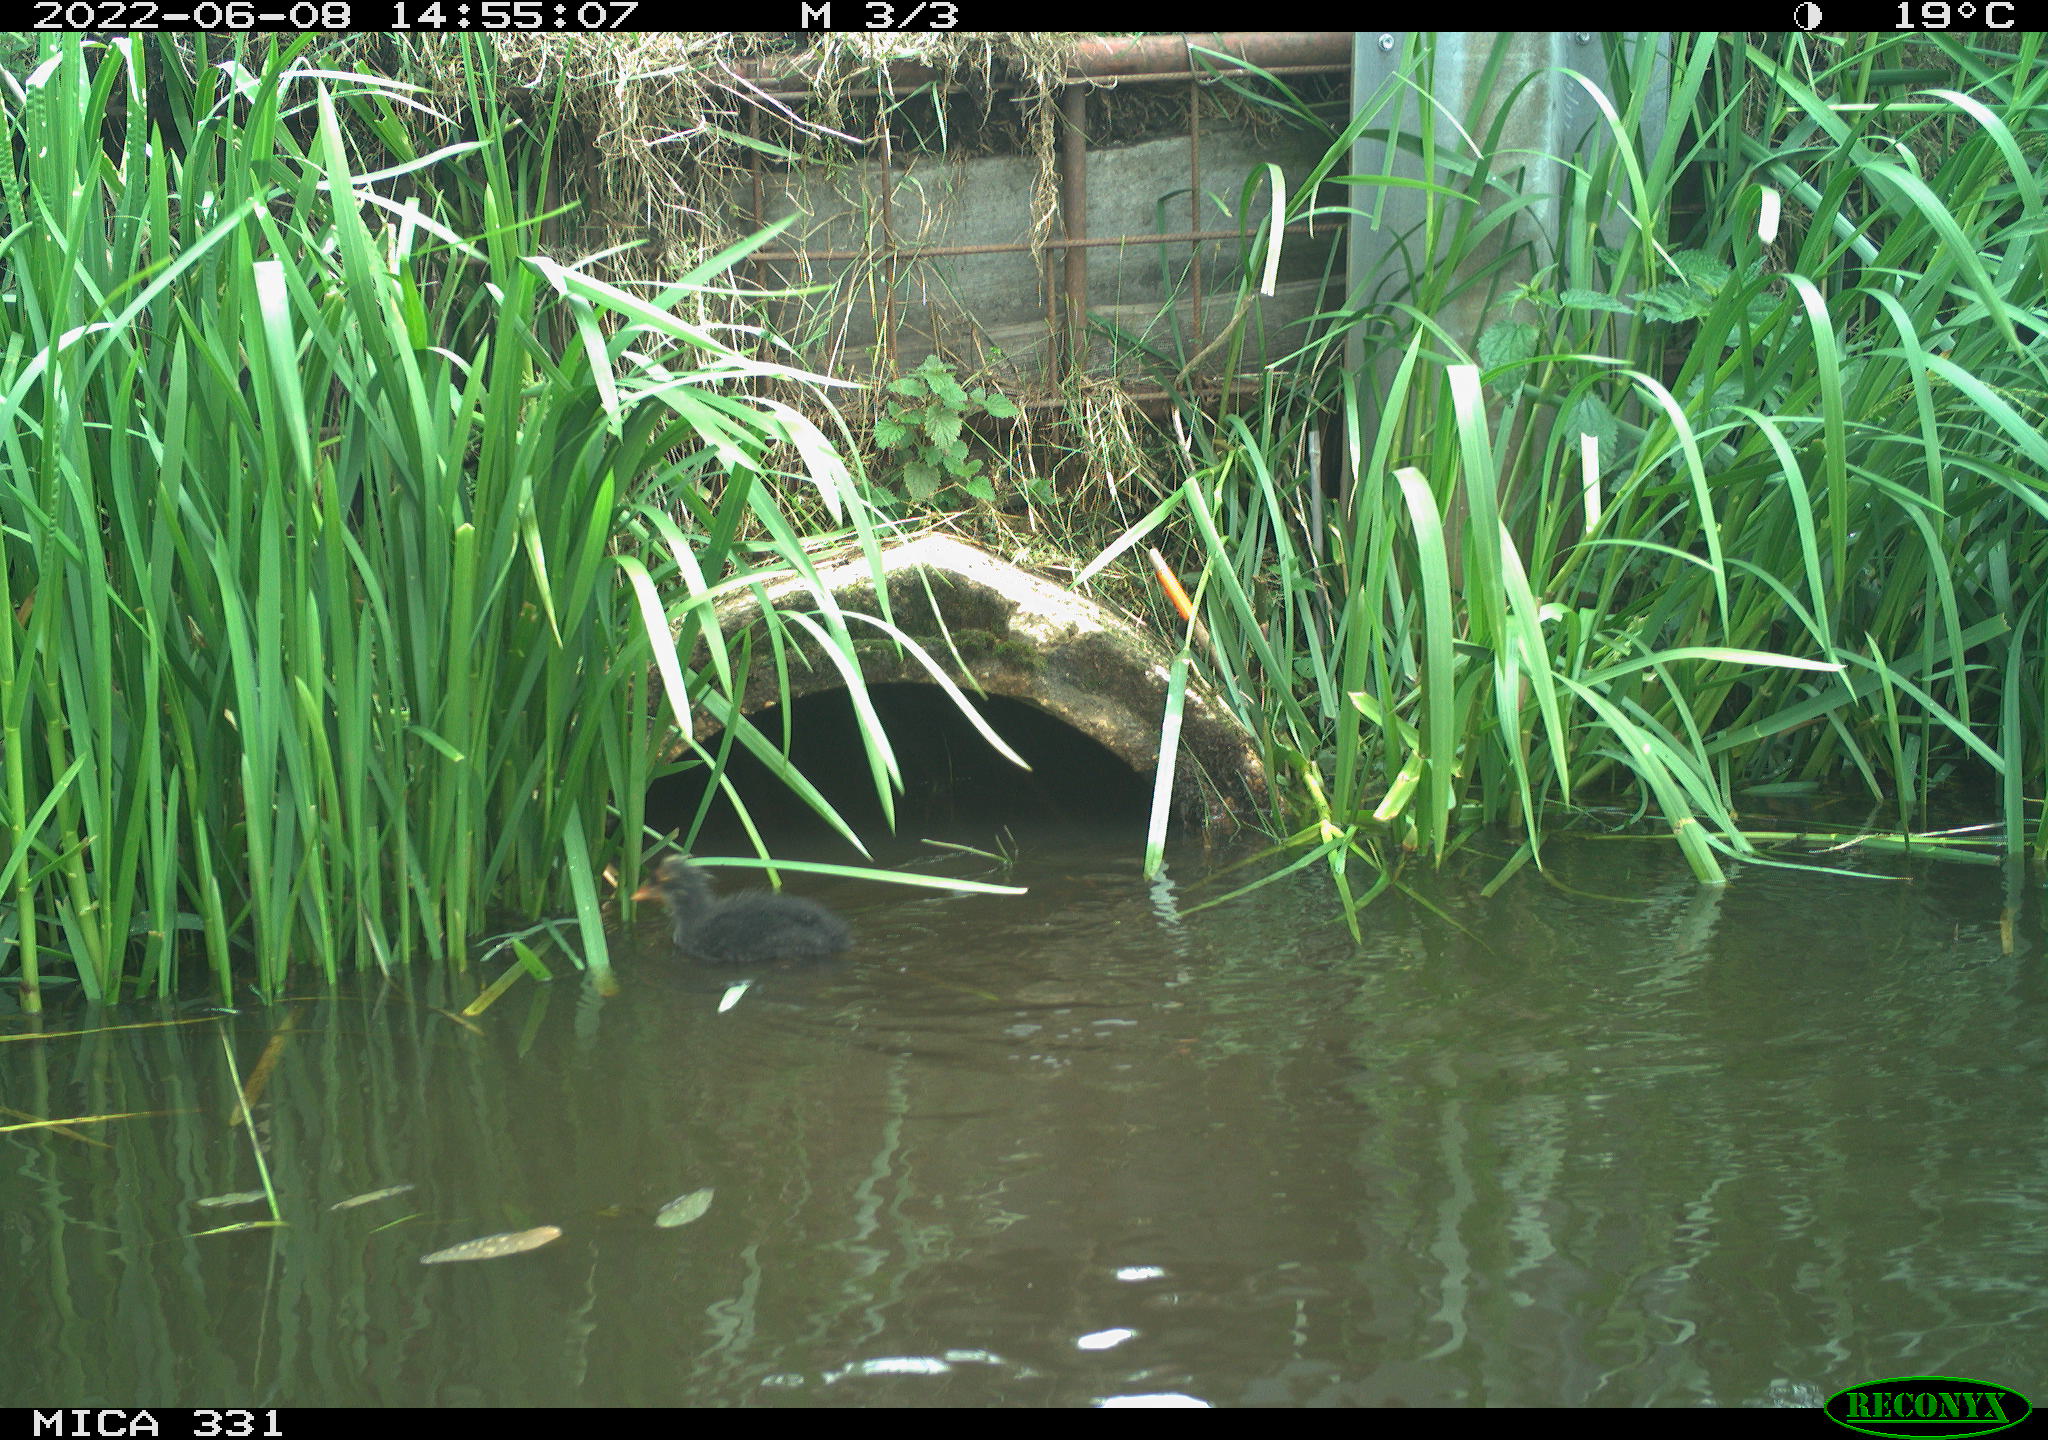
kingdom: Animalia
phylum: Chordata
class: Aves
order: Gruiformes
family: Rallidae
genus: Fulica
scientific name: Fulica atra
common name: Eurasian coot
